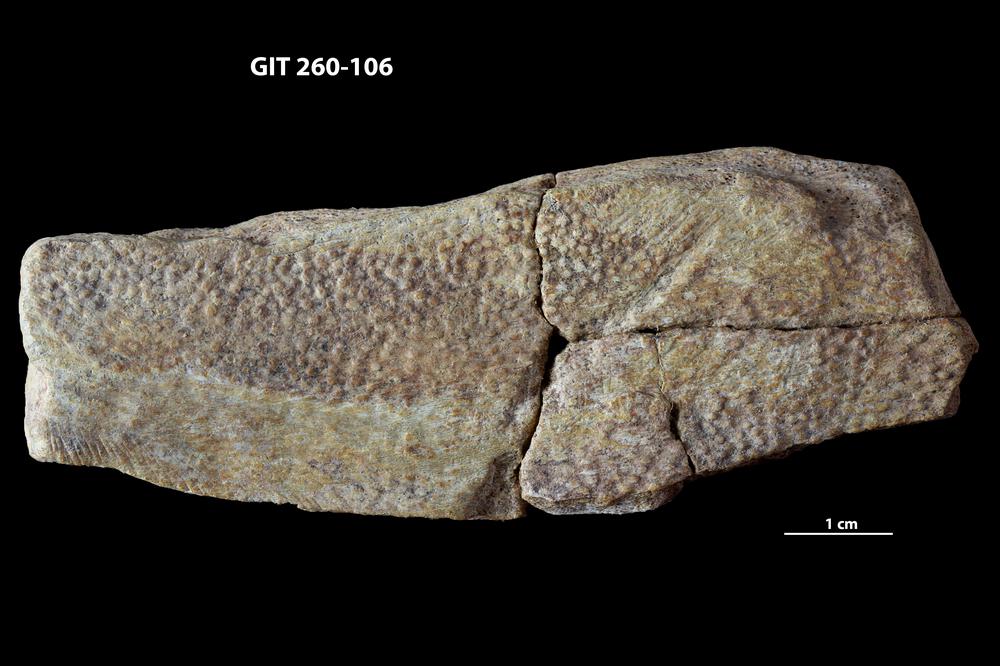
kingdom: Animalia
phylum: Chordata
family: Homostiidae
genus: Homostius
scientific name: Homostius
